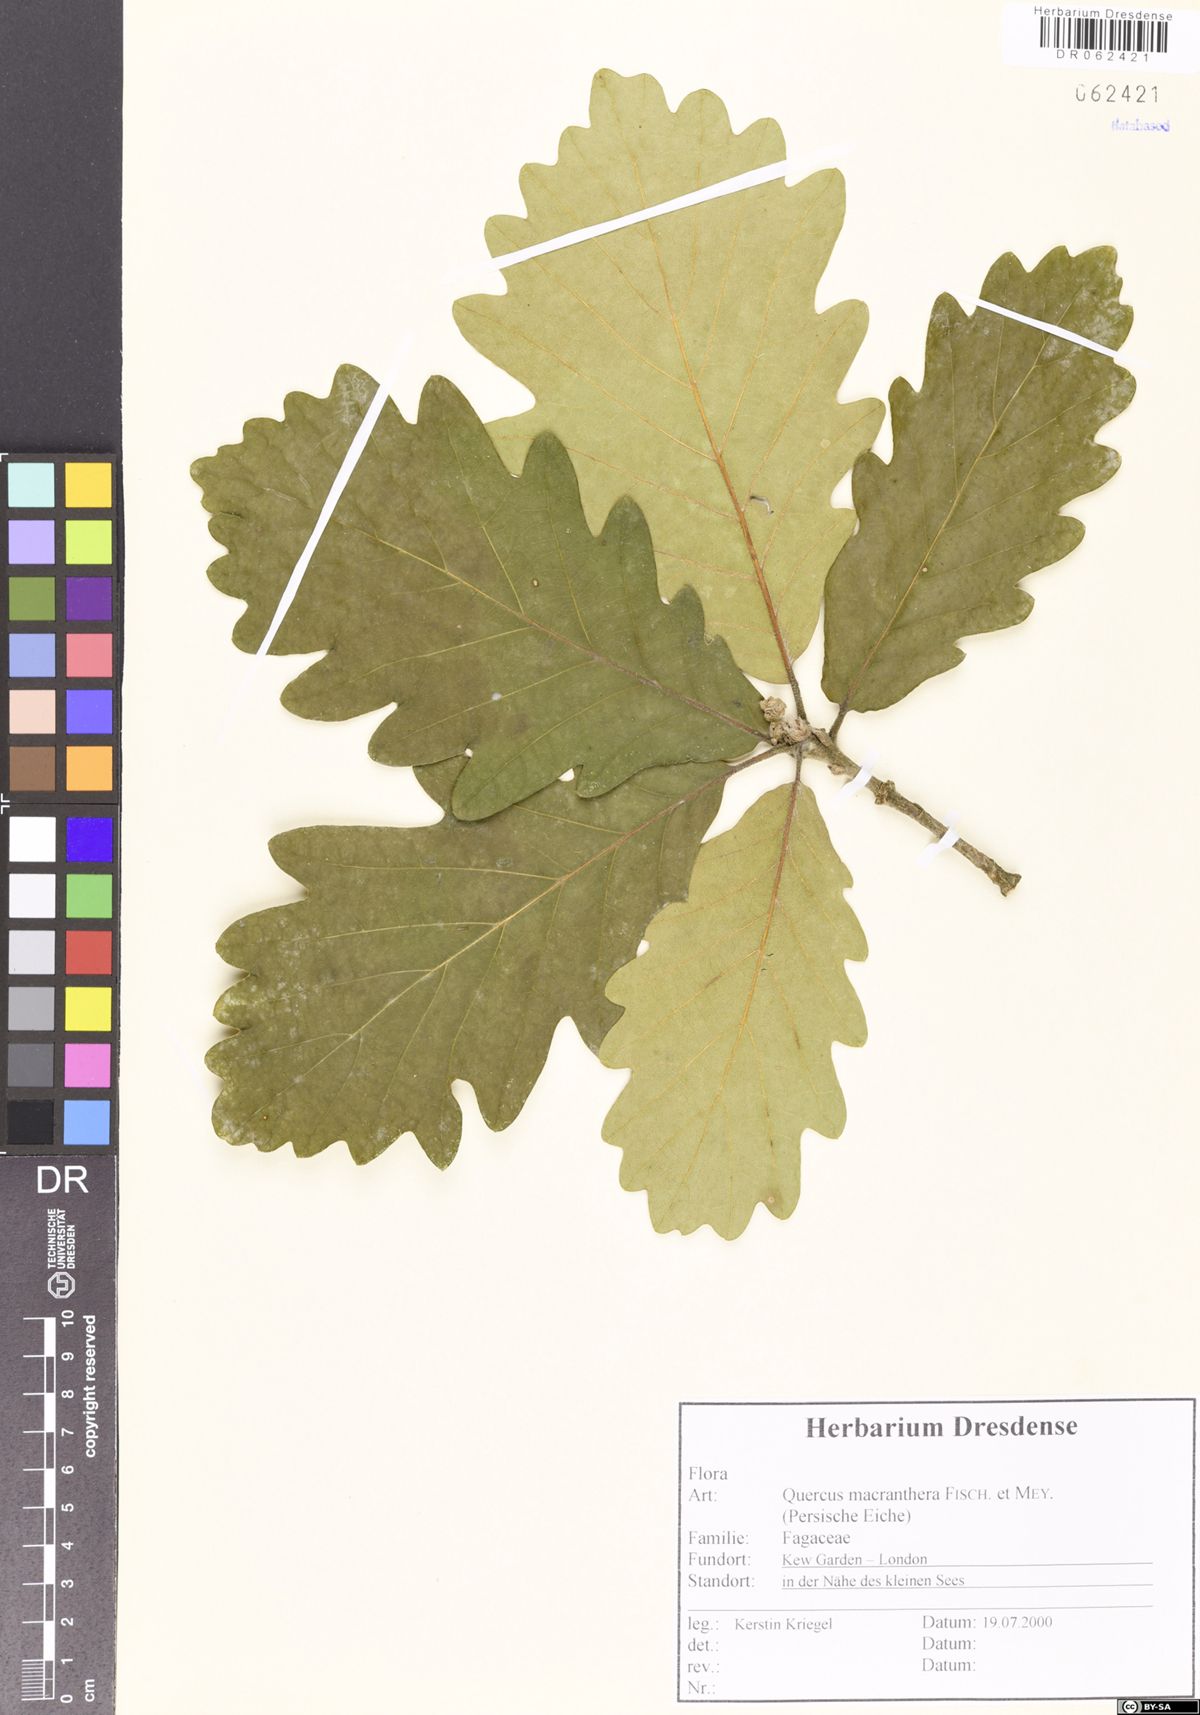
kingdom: Plantae
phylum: Tracheophyta
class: Magnoliopsida
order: Fagales
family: Fagaceae
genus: Quercus
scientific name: Quercus macranthera
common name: Caucasian oak
